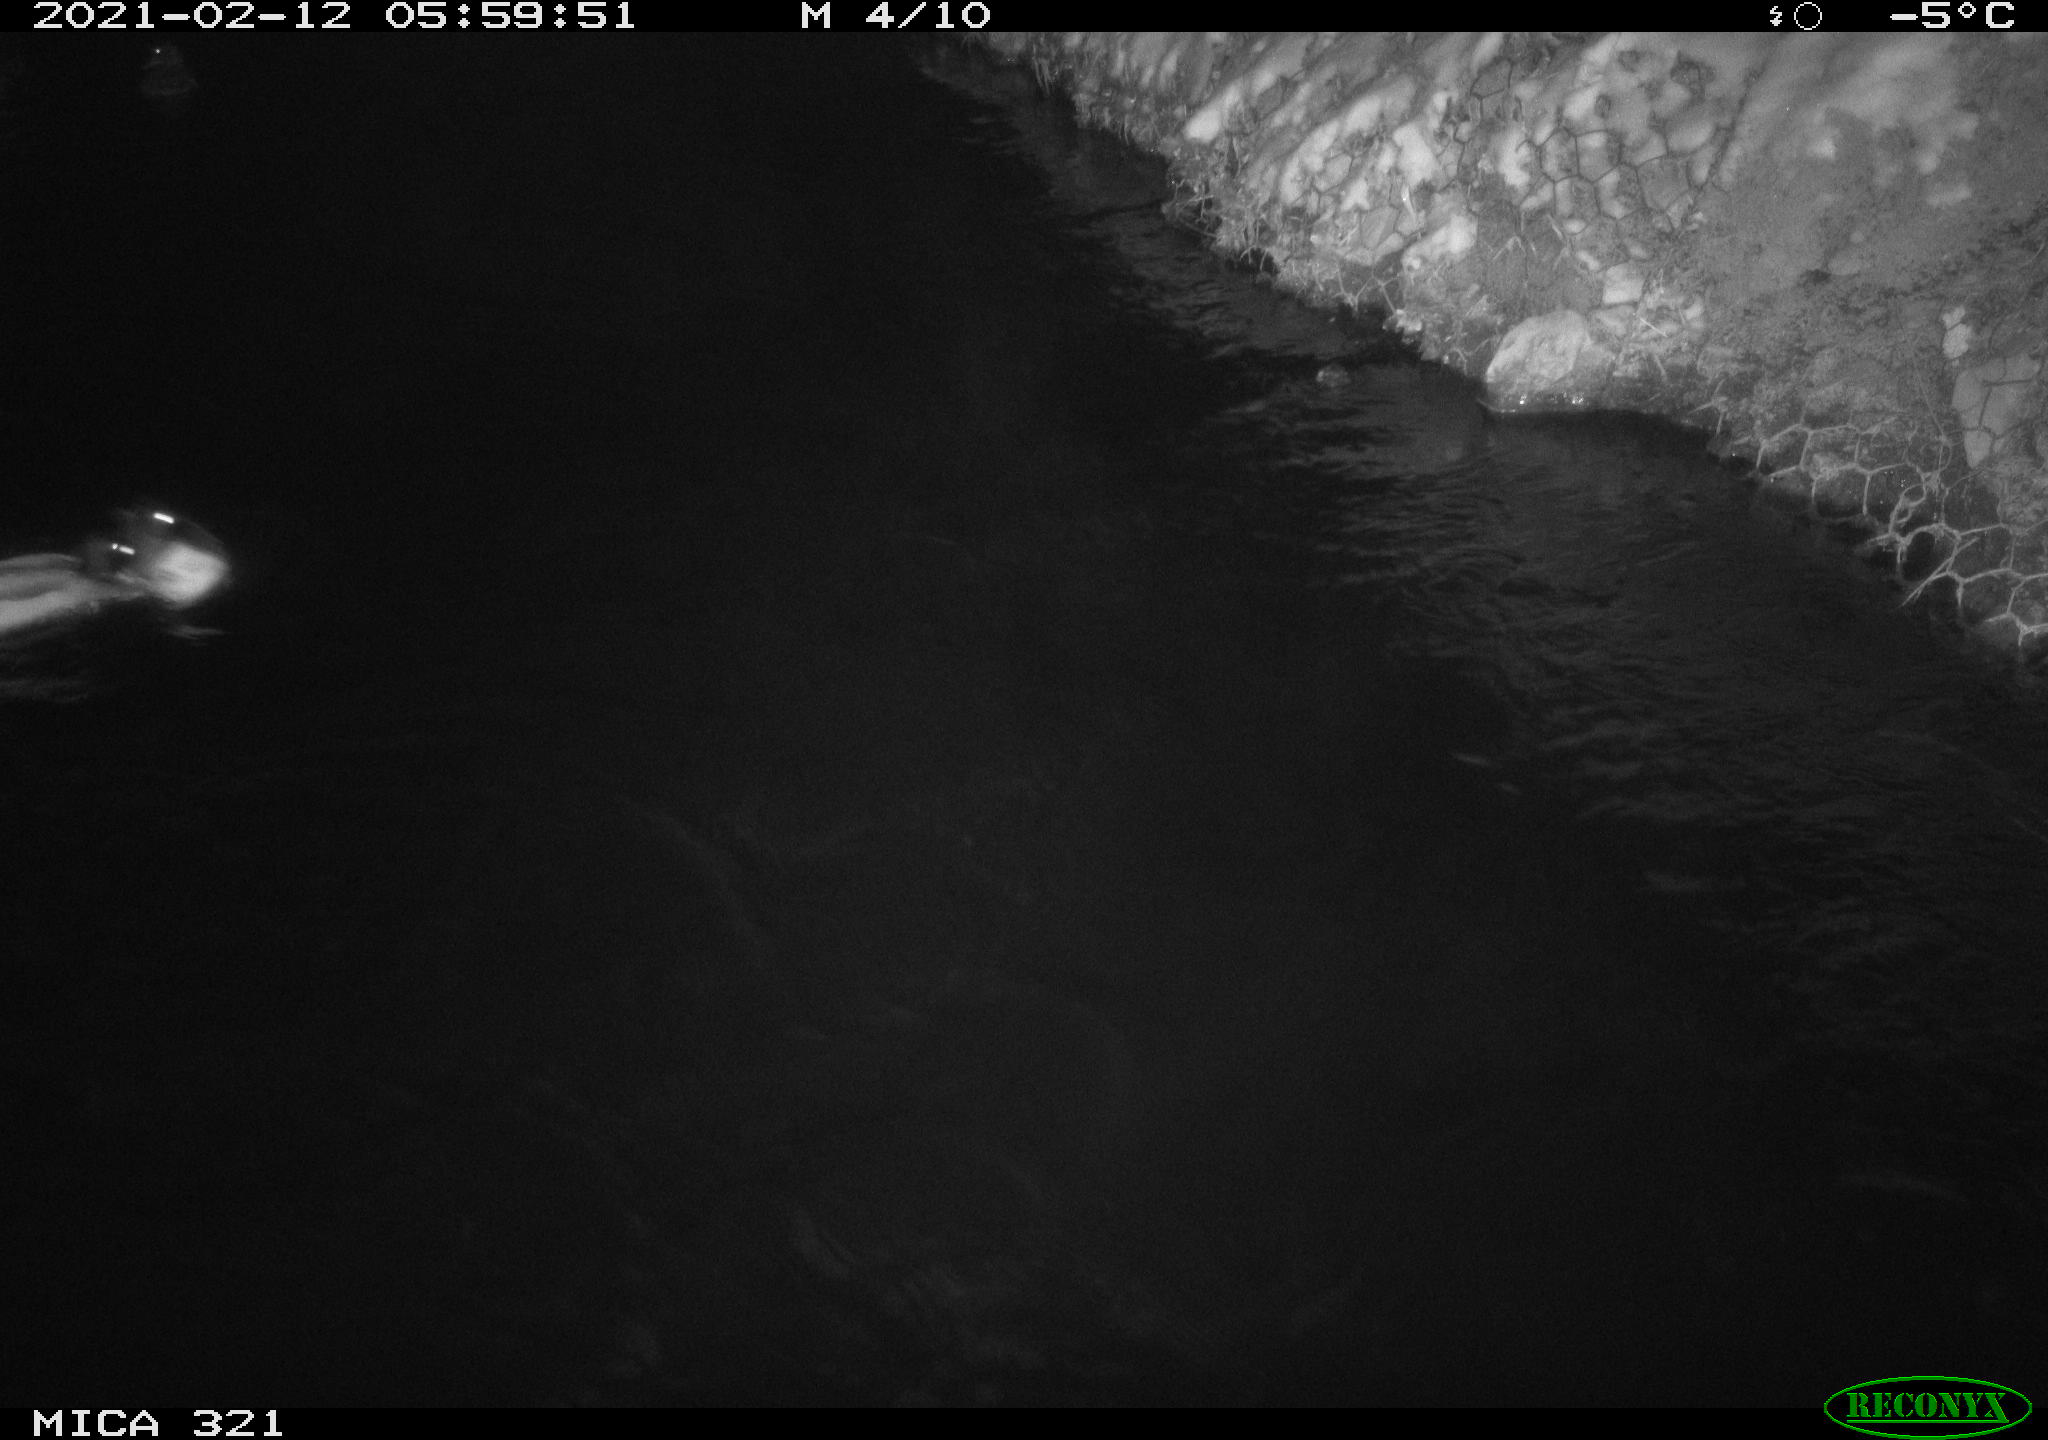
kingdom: Animalia
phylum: Chordata
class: Aves
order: Anseriformes
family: Anatidae
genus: Anas
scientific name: Anas platyrhynchos
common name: Mallard
